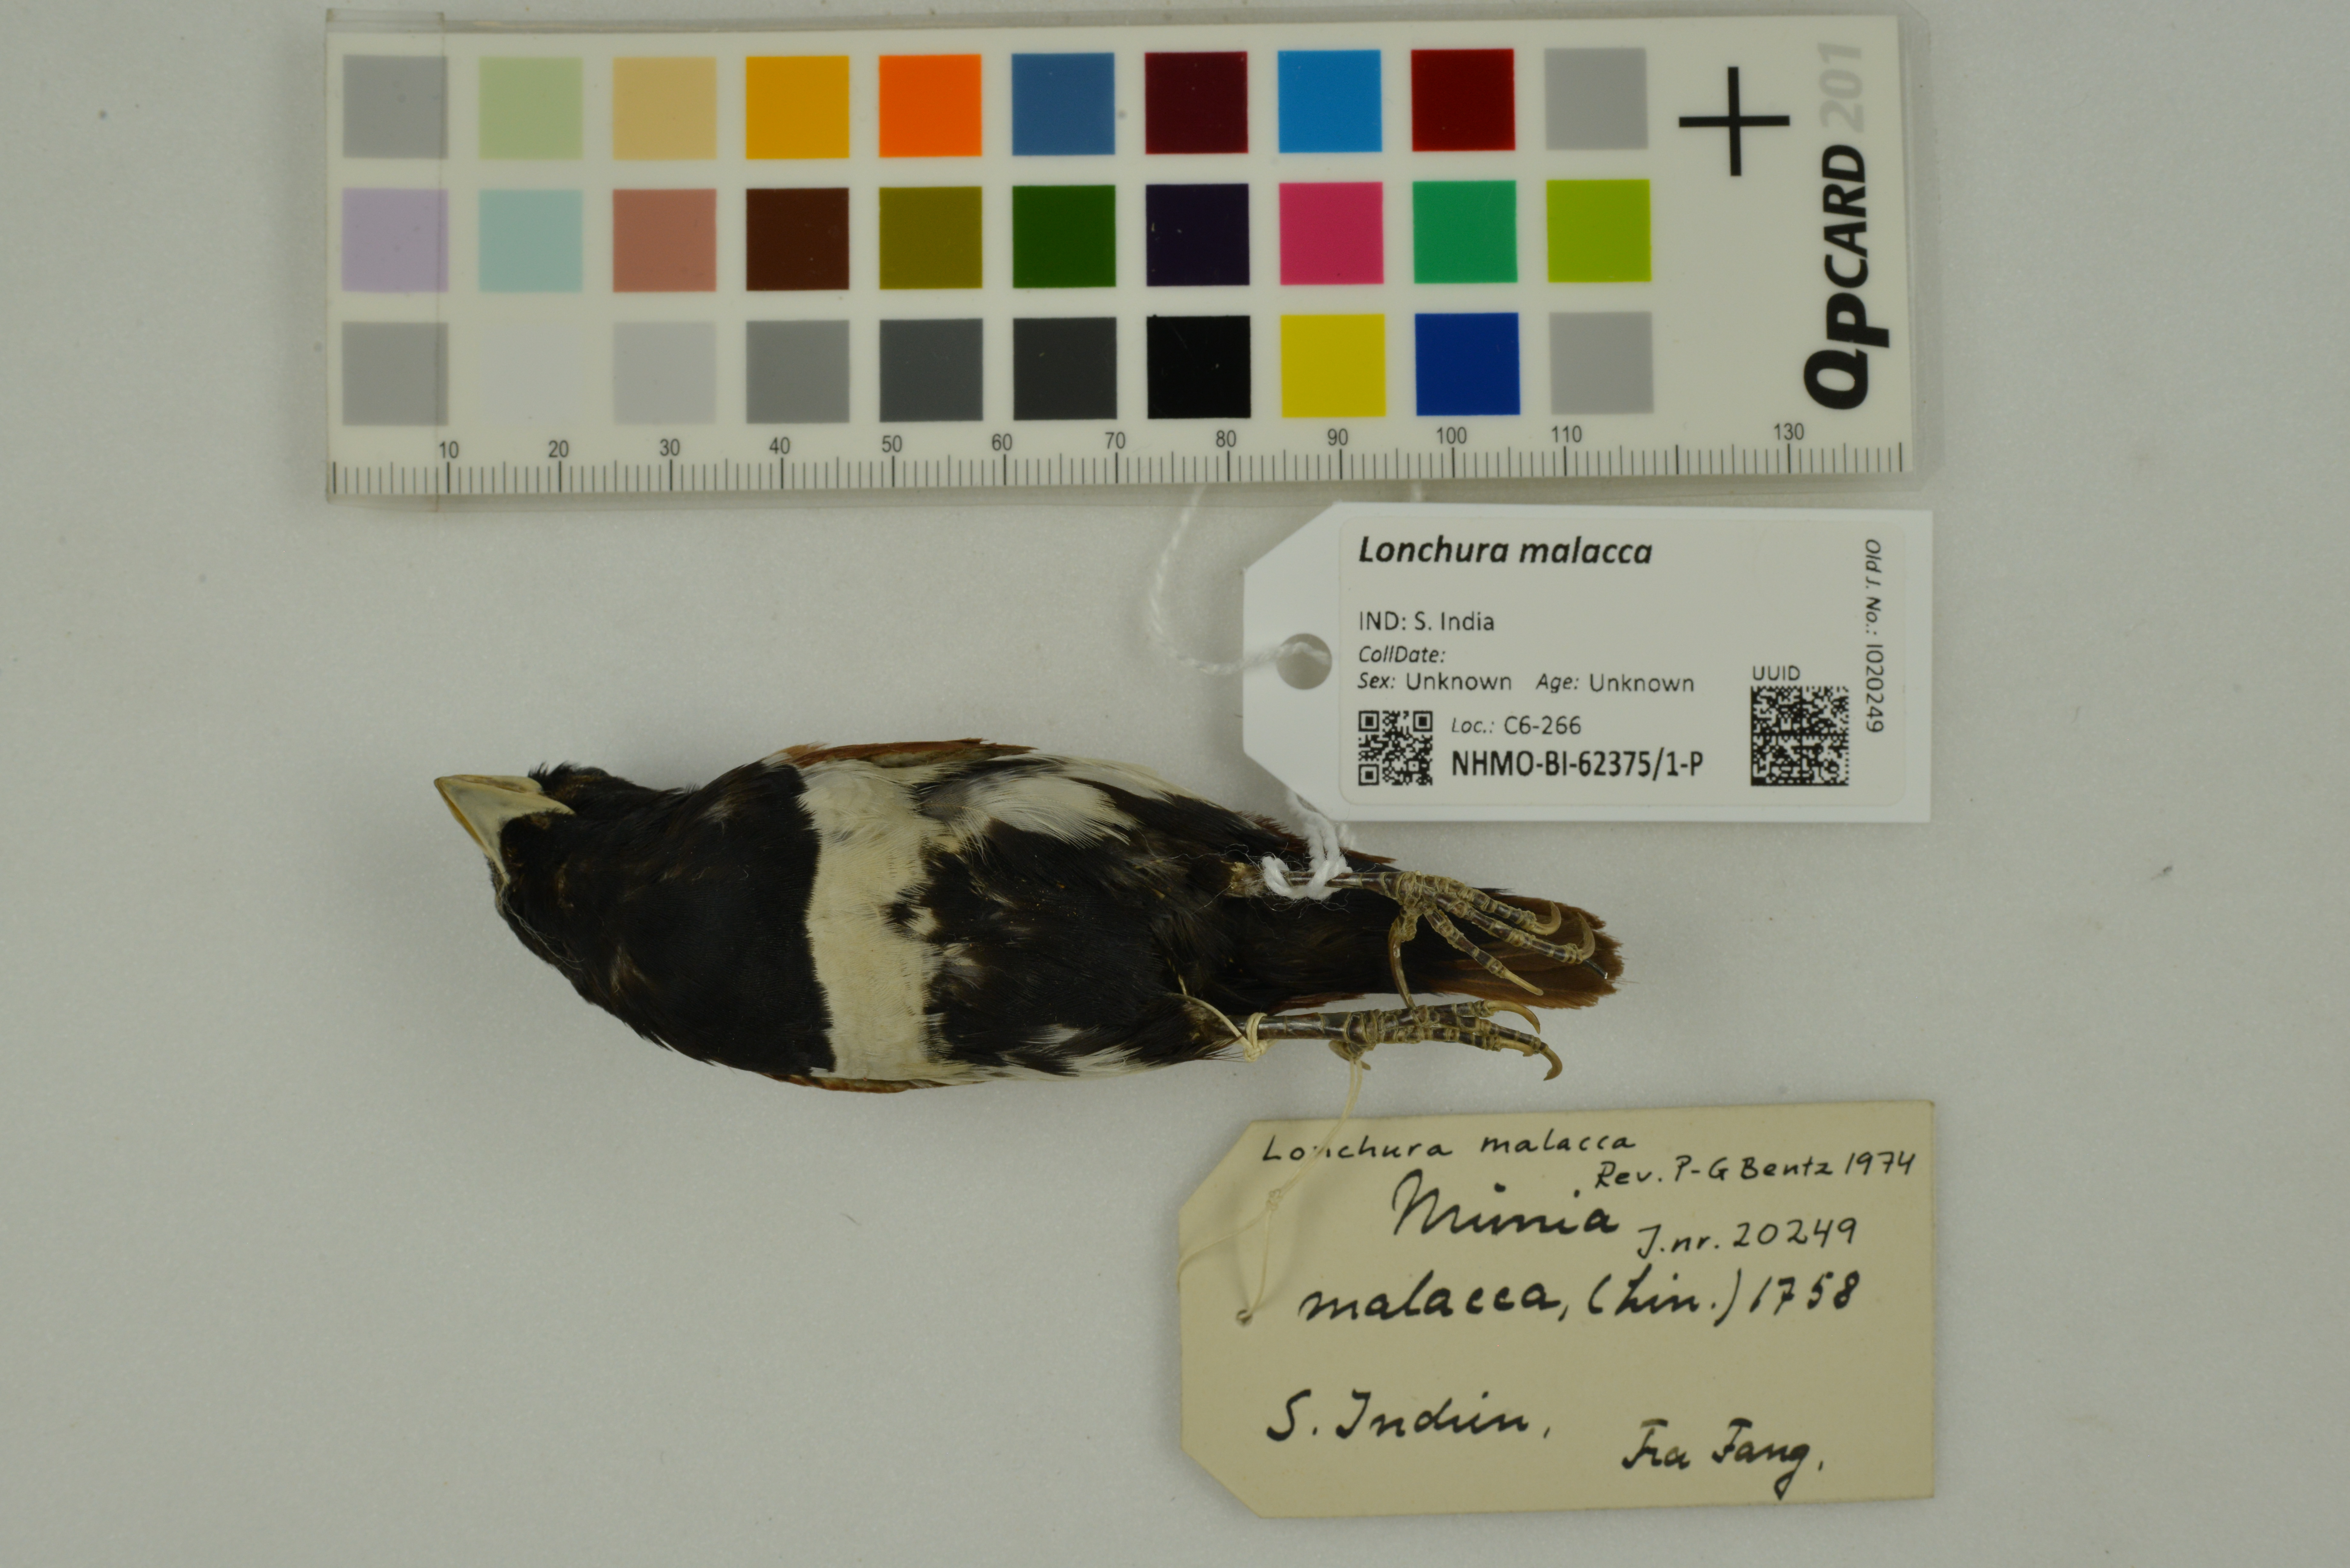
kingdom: Animalia
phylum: Chordata
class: Aves
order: Passeriformes
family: Estrildidae
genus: Lonchura
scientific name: Lonchura malacca
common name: Tricolored munia
